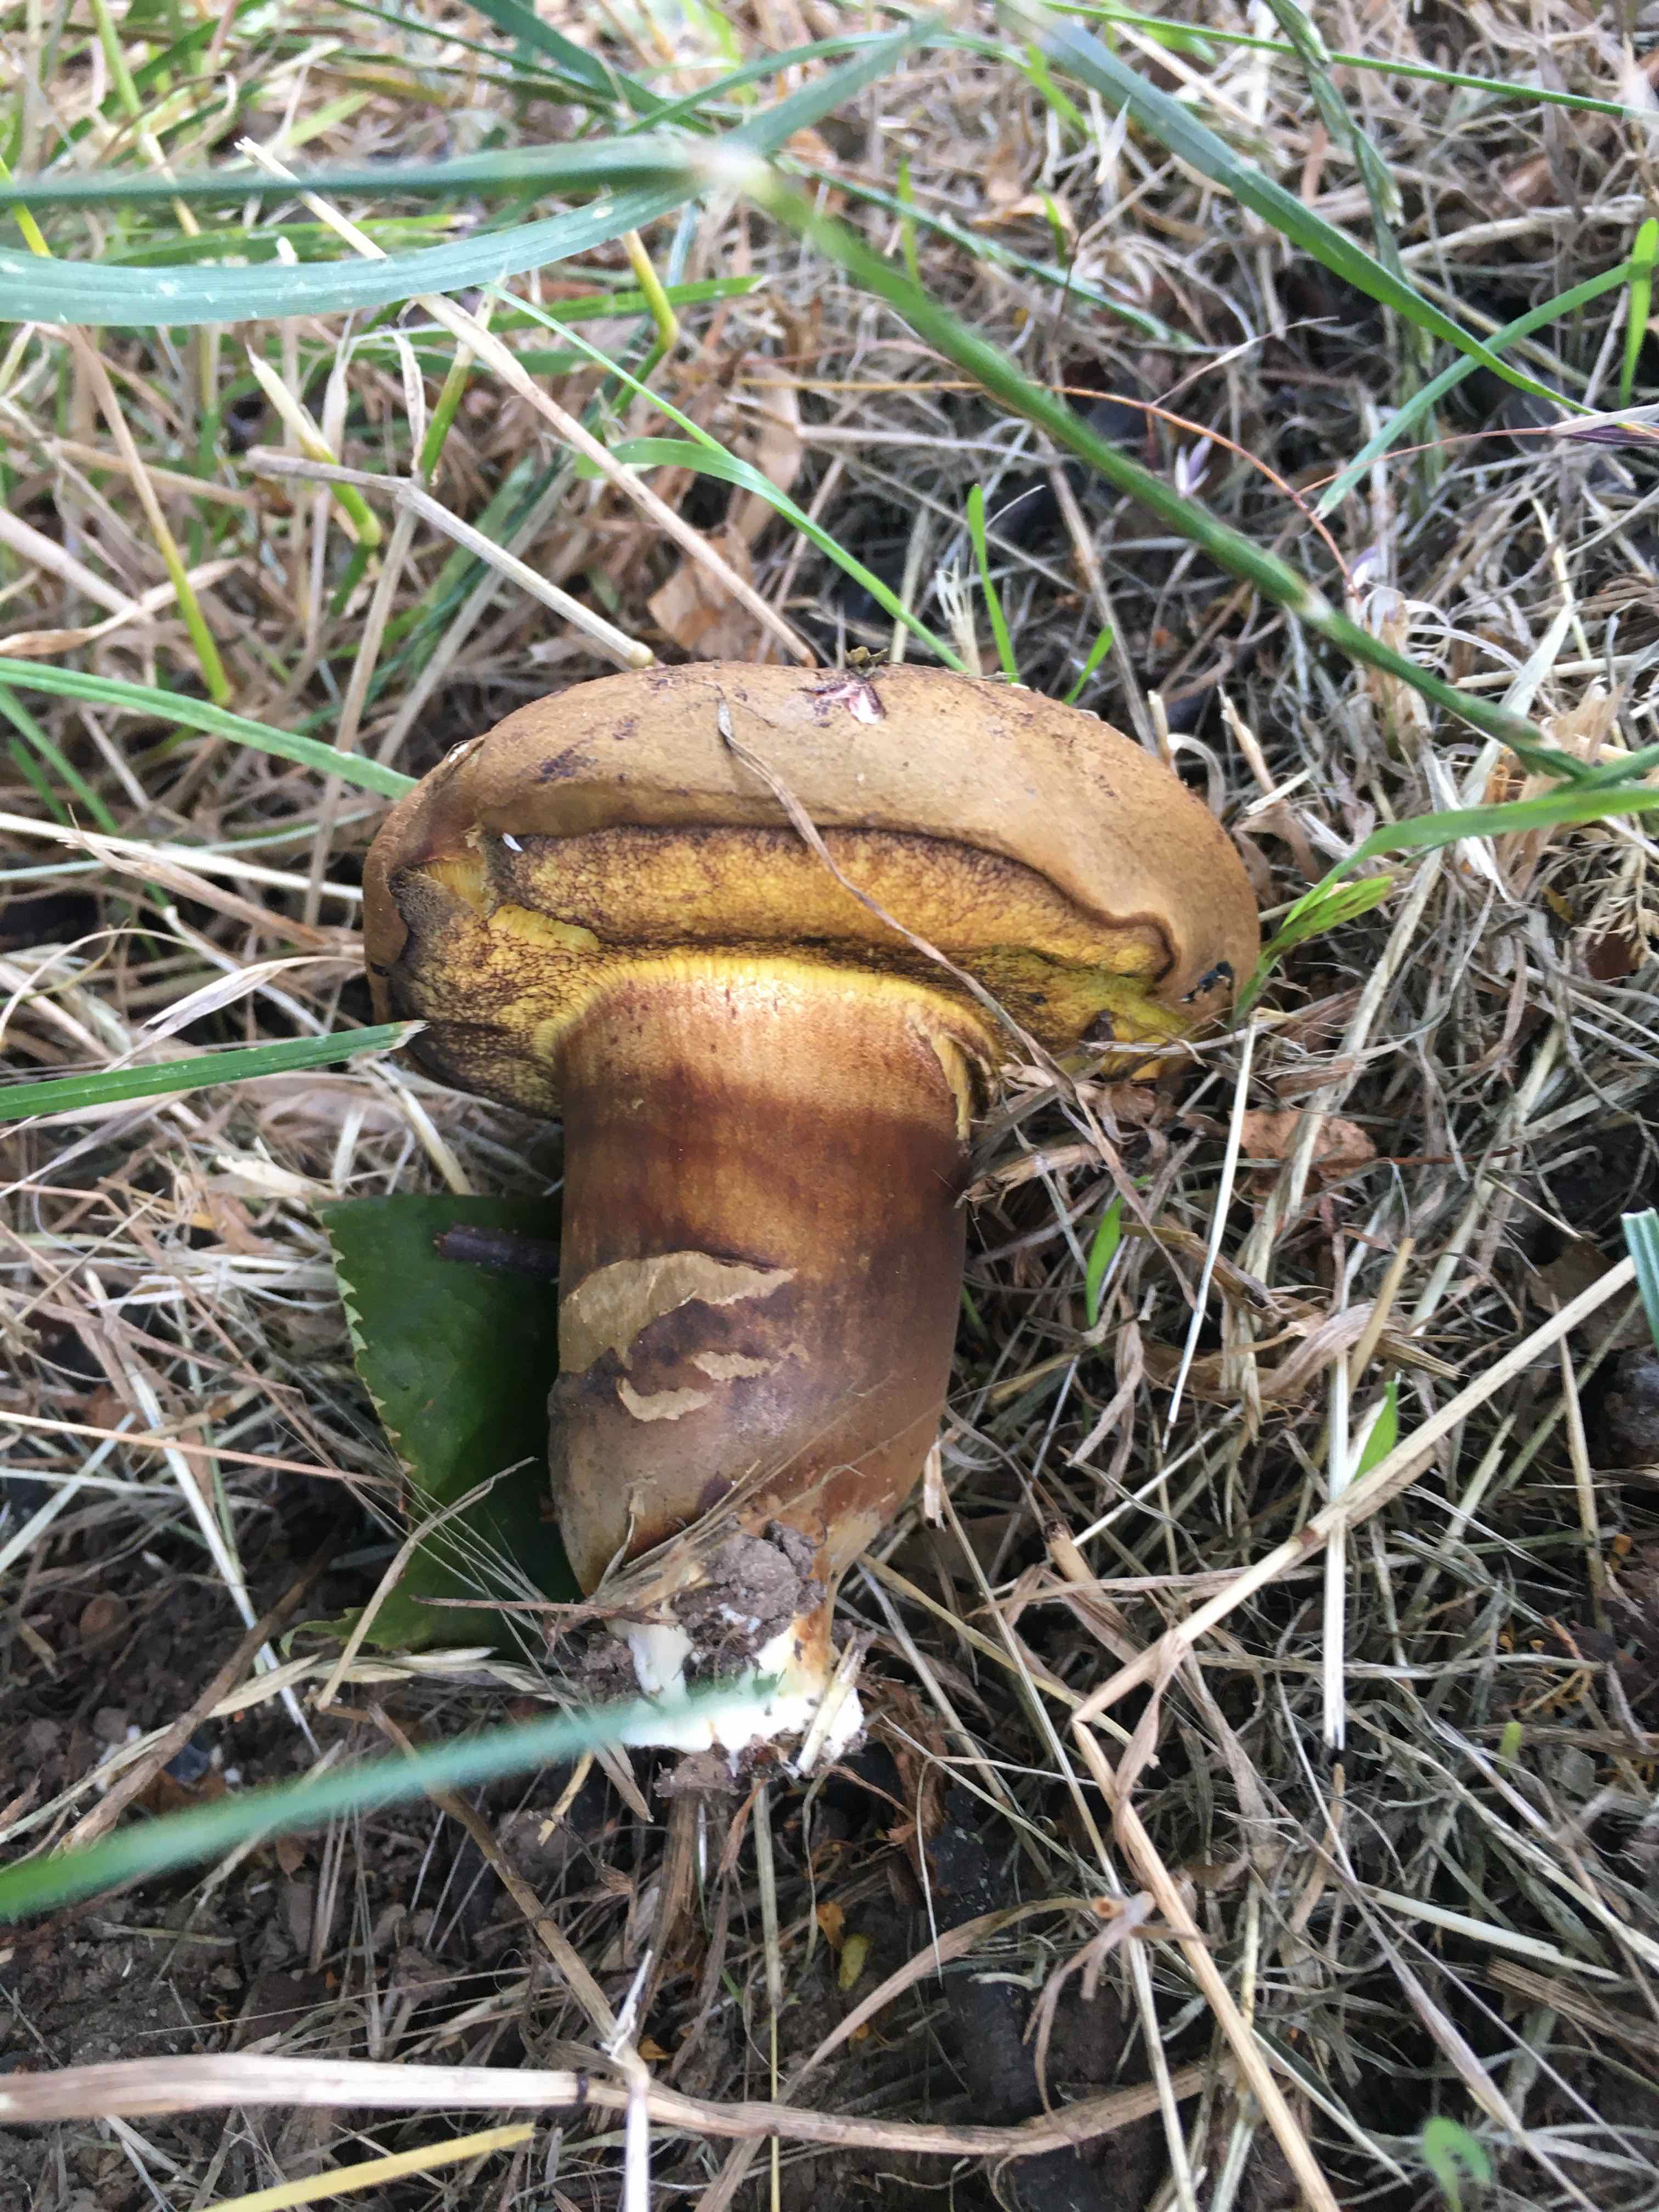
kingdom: Fungi
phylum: Basidiomycota
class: Agaricomycetes
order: Boletales
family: Boletaceae
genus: Cyanoboletus
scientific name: Cyanoboletus pulverulentus
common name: sortblånende rørhat
